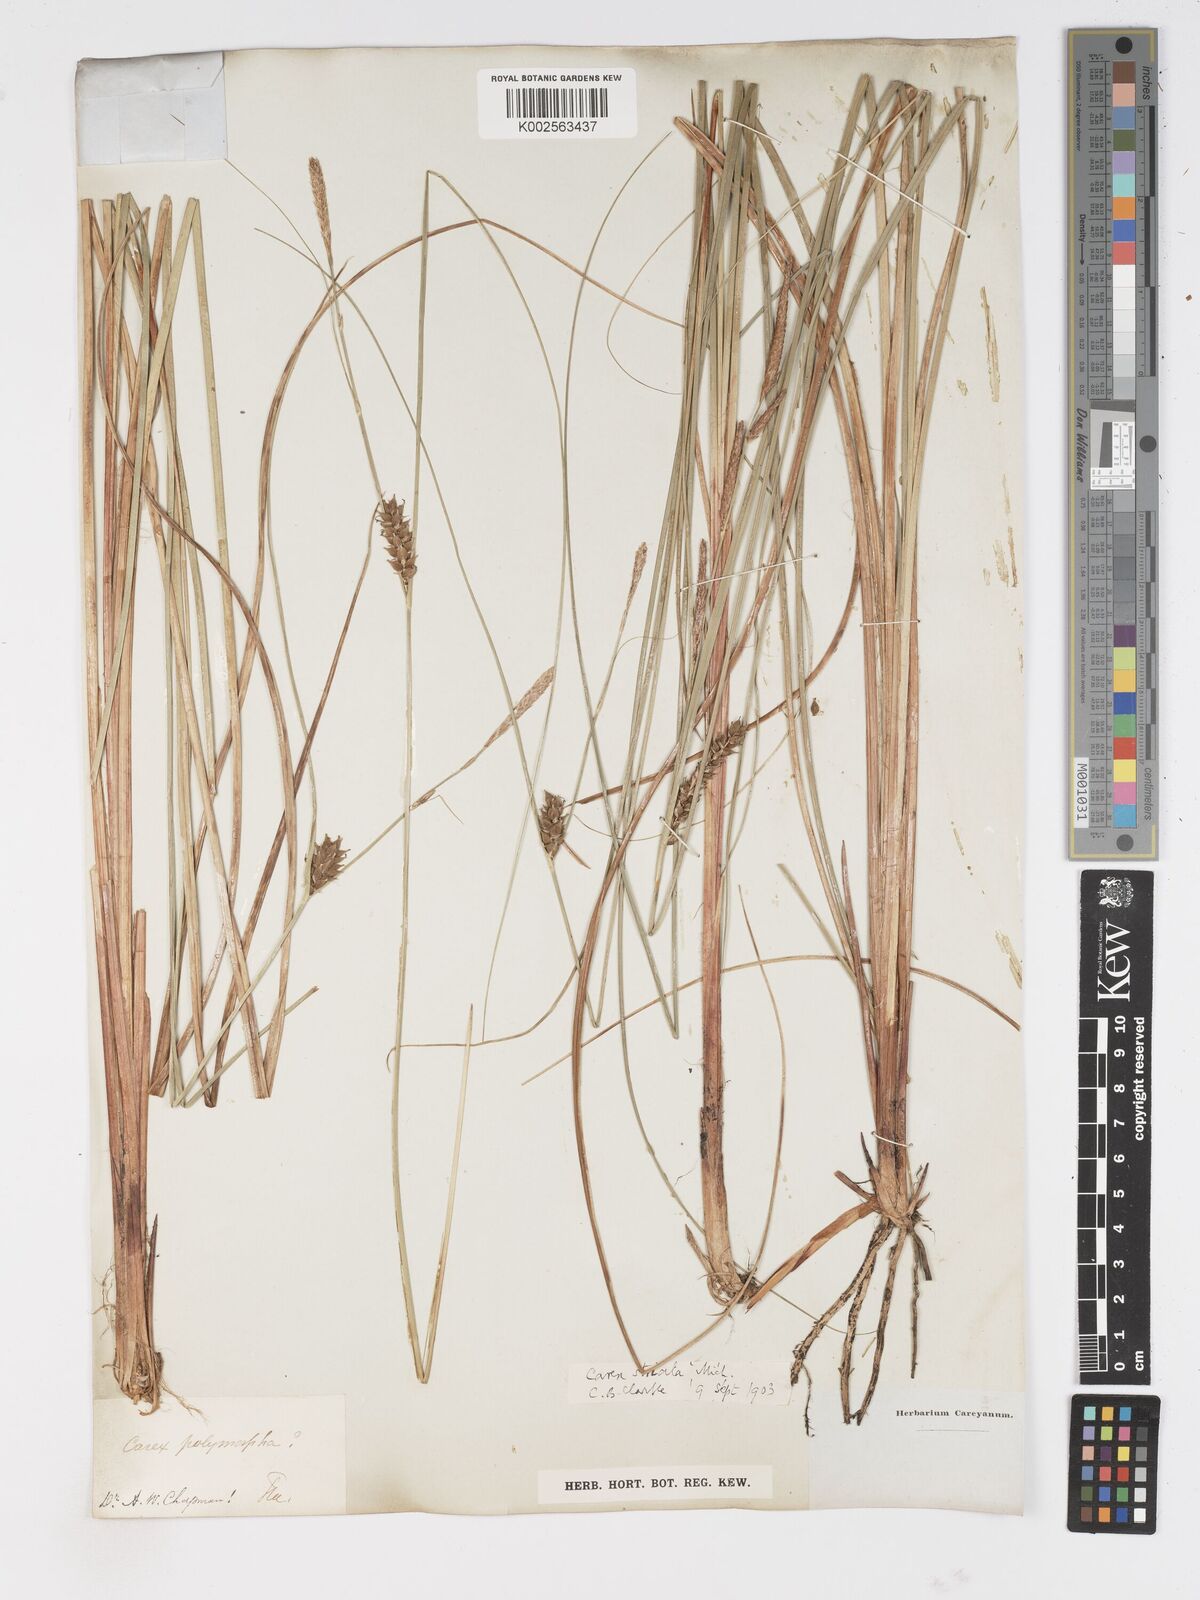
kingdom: Plantae
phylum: Tracheophyta
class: Liliopsida
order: Poales
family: Cyperaceae
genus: Carex
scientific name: Carex trichocarpa
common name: Hairy-fruited lake sedge
